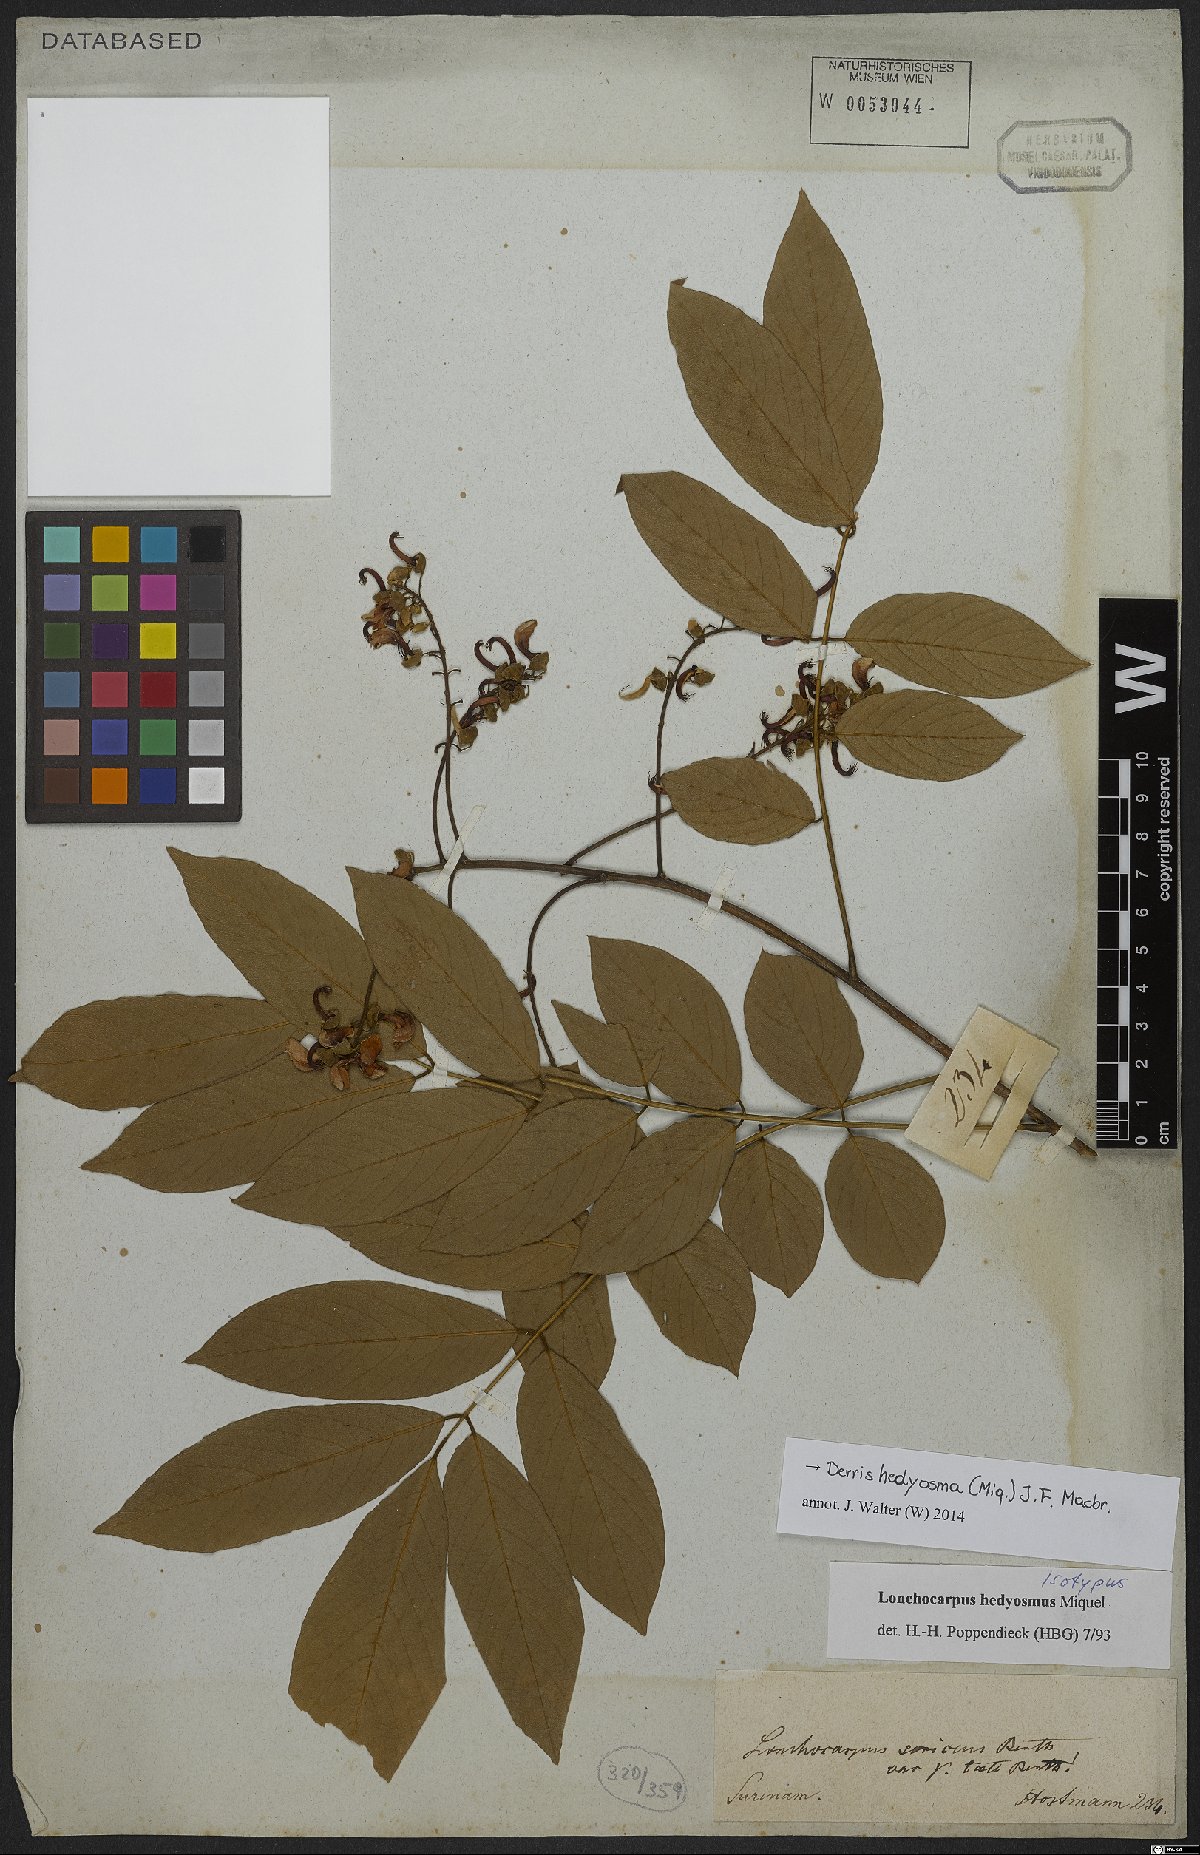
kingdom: Plantae
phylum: Tracheophyta
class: Magnoliopsida
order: Fabales
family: Fabaceae
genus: Lonchocarpus
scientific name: Lonchocarpus hedyosmus
